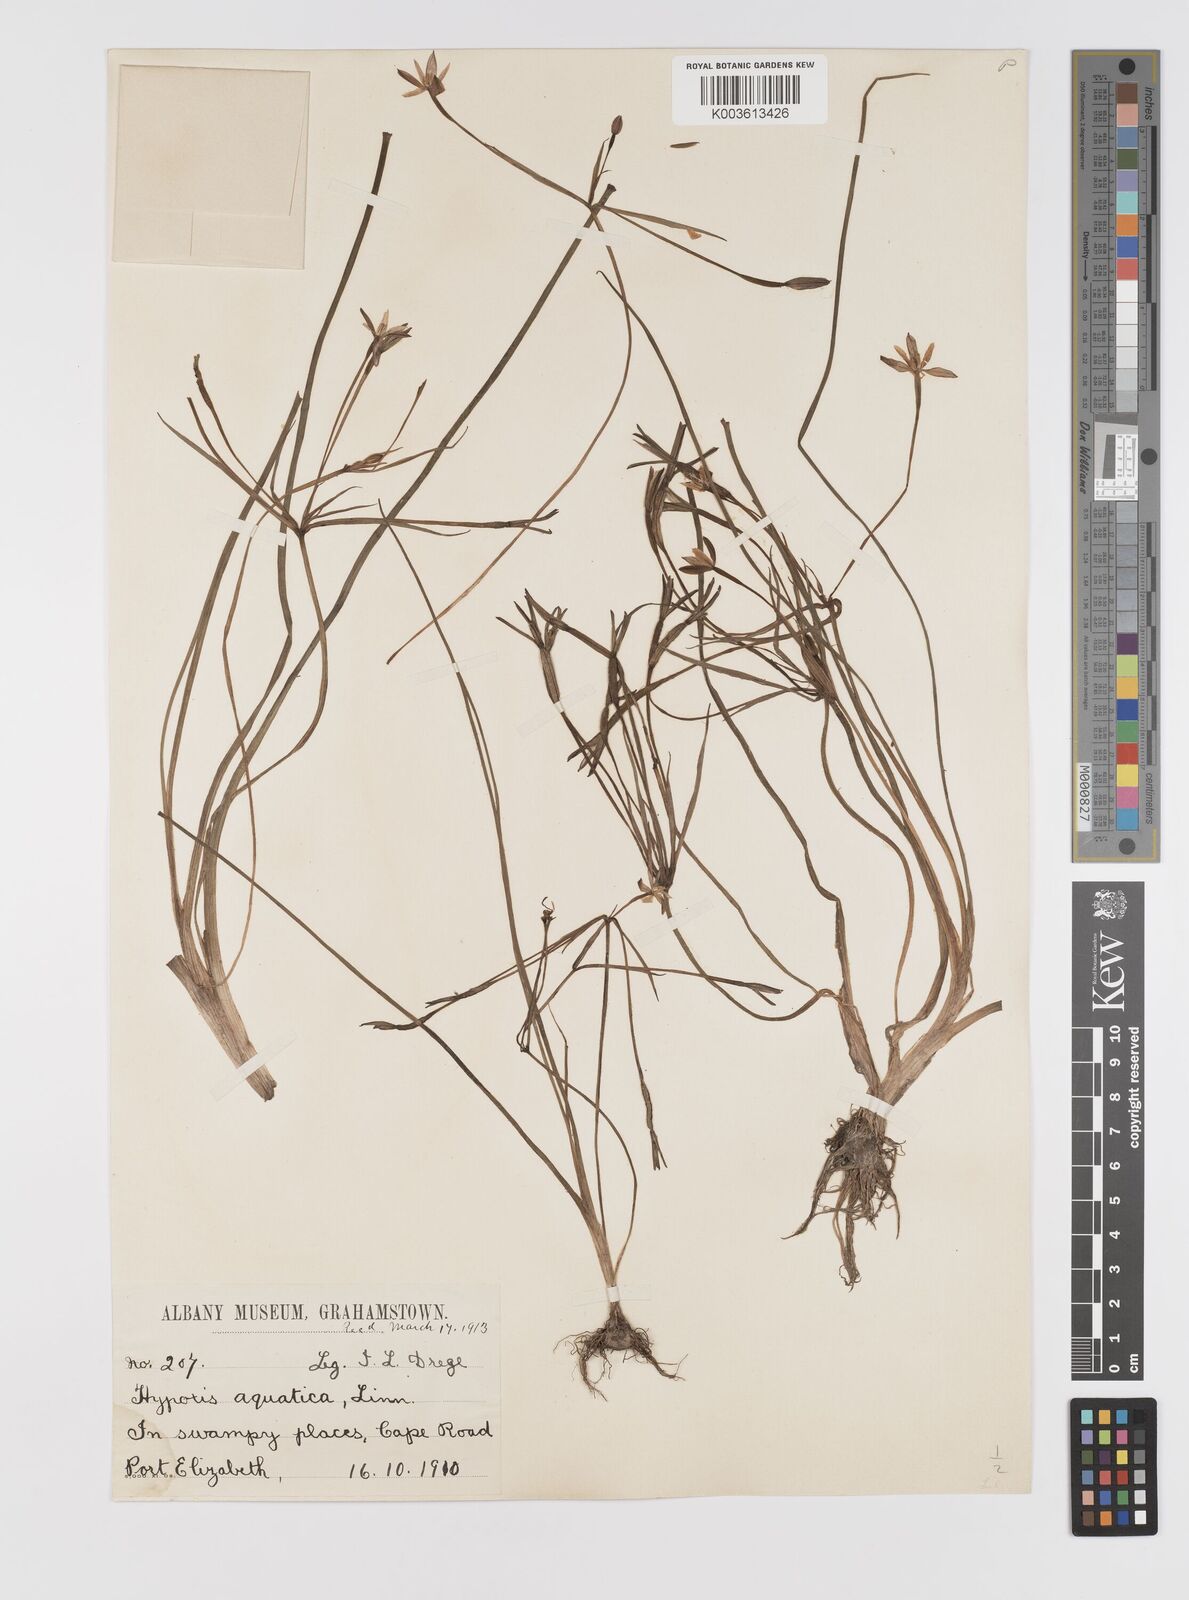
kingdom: Plantae
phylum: Tracheophyta
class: Liliopsida
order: Asparagales
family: Hypoxidaceae
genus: Pauridia
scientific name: Pauridia aquatica
